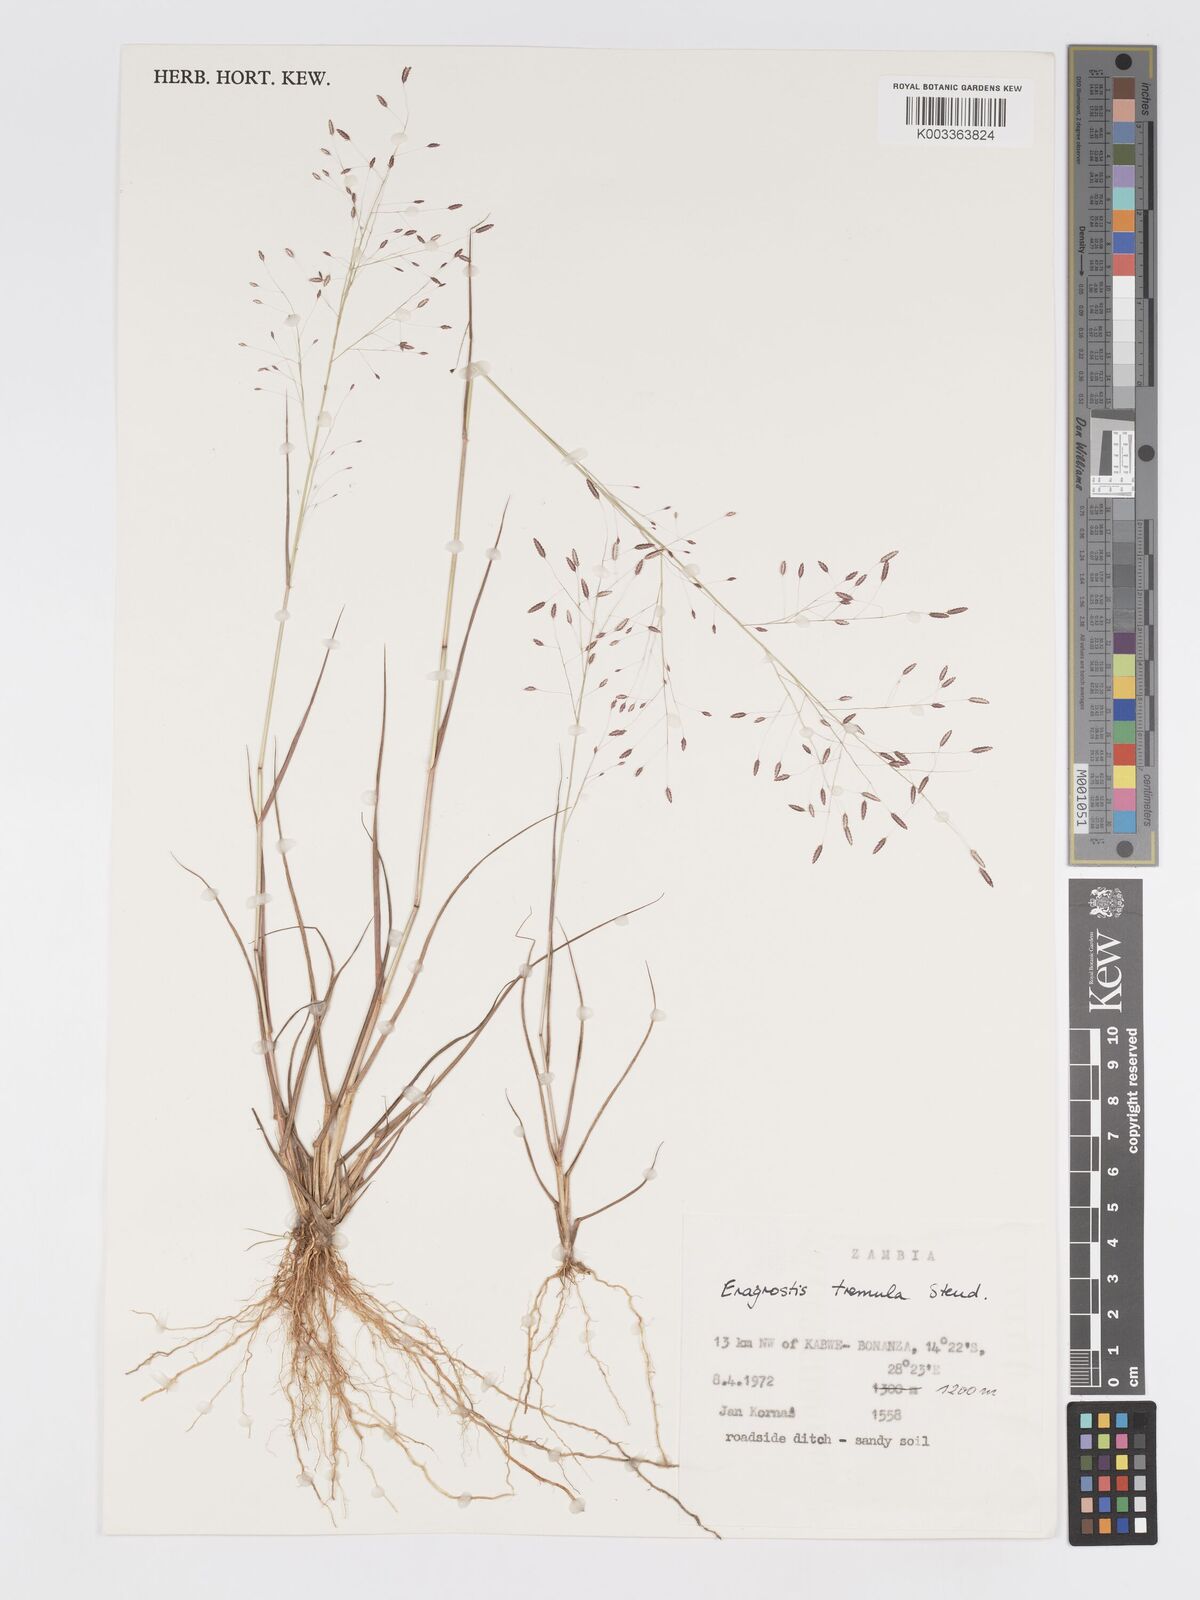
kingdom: Plantae
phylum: Tracheophyta
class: Liliopsida
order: Poales
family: Poaceae
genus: Eragrostis
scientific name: Eragrostis tremula
